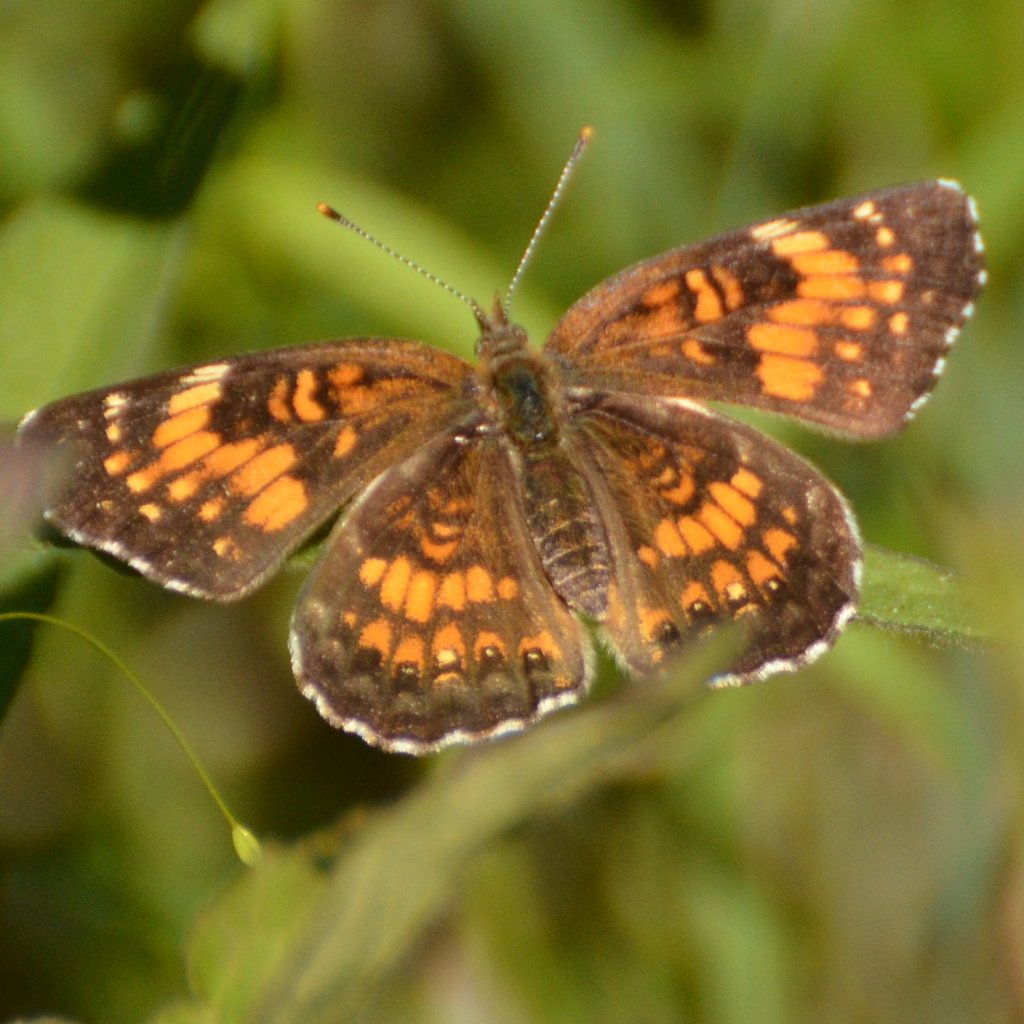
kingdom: Animalia
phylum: Arthropoda
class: Insecta
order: Lepidoptera
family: Nymphalidae
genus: Chlosyne
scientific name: Chlosyne harrisii
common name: Harris's Checkerspot
